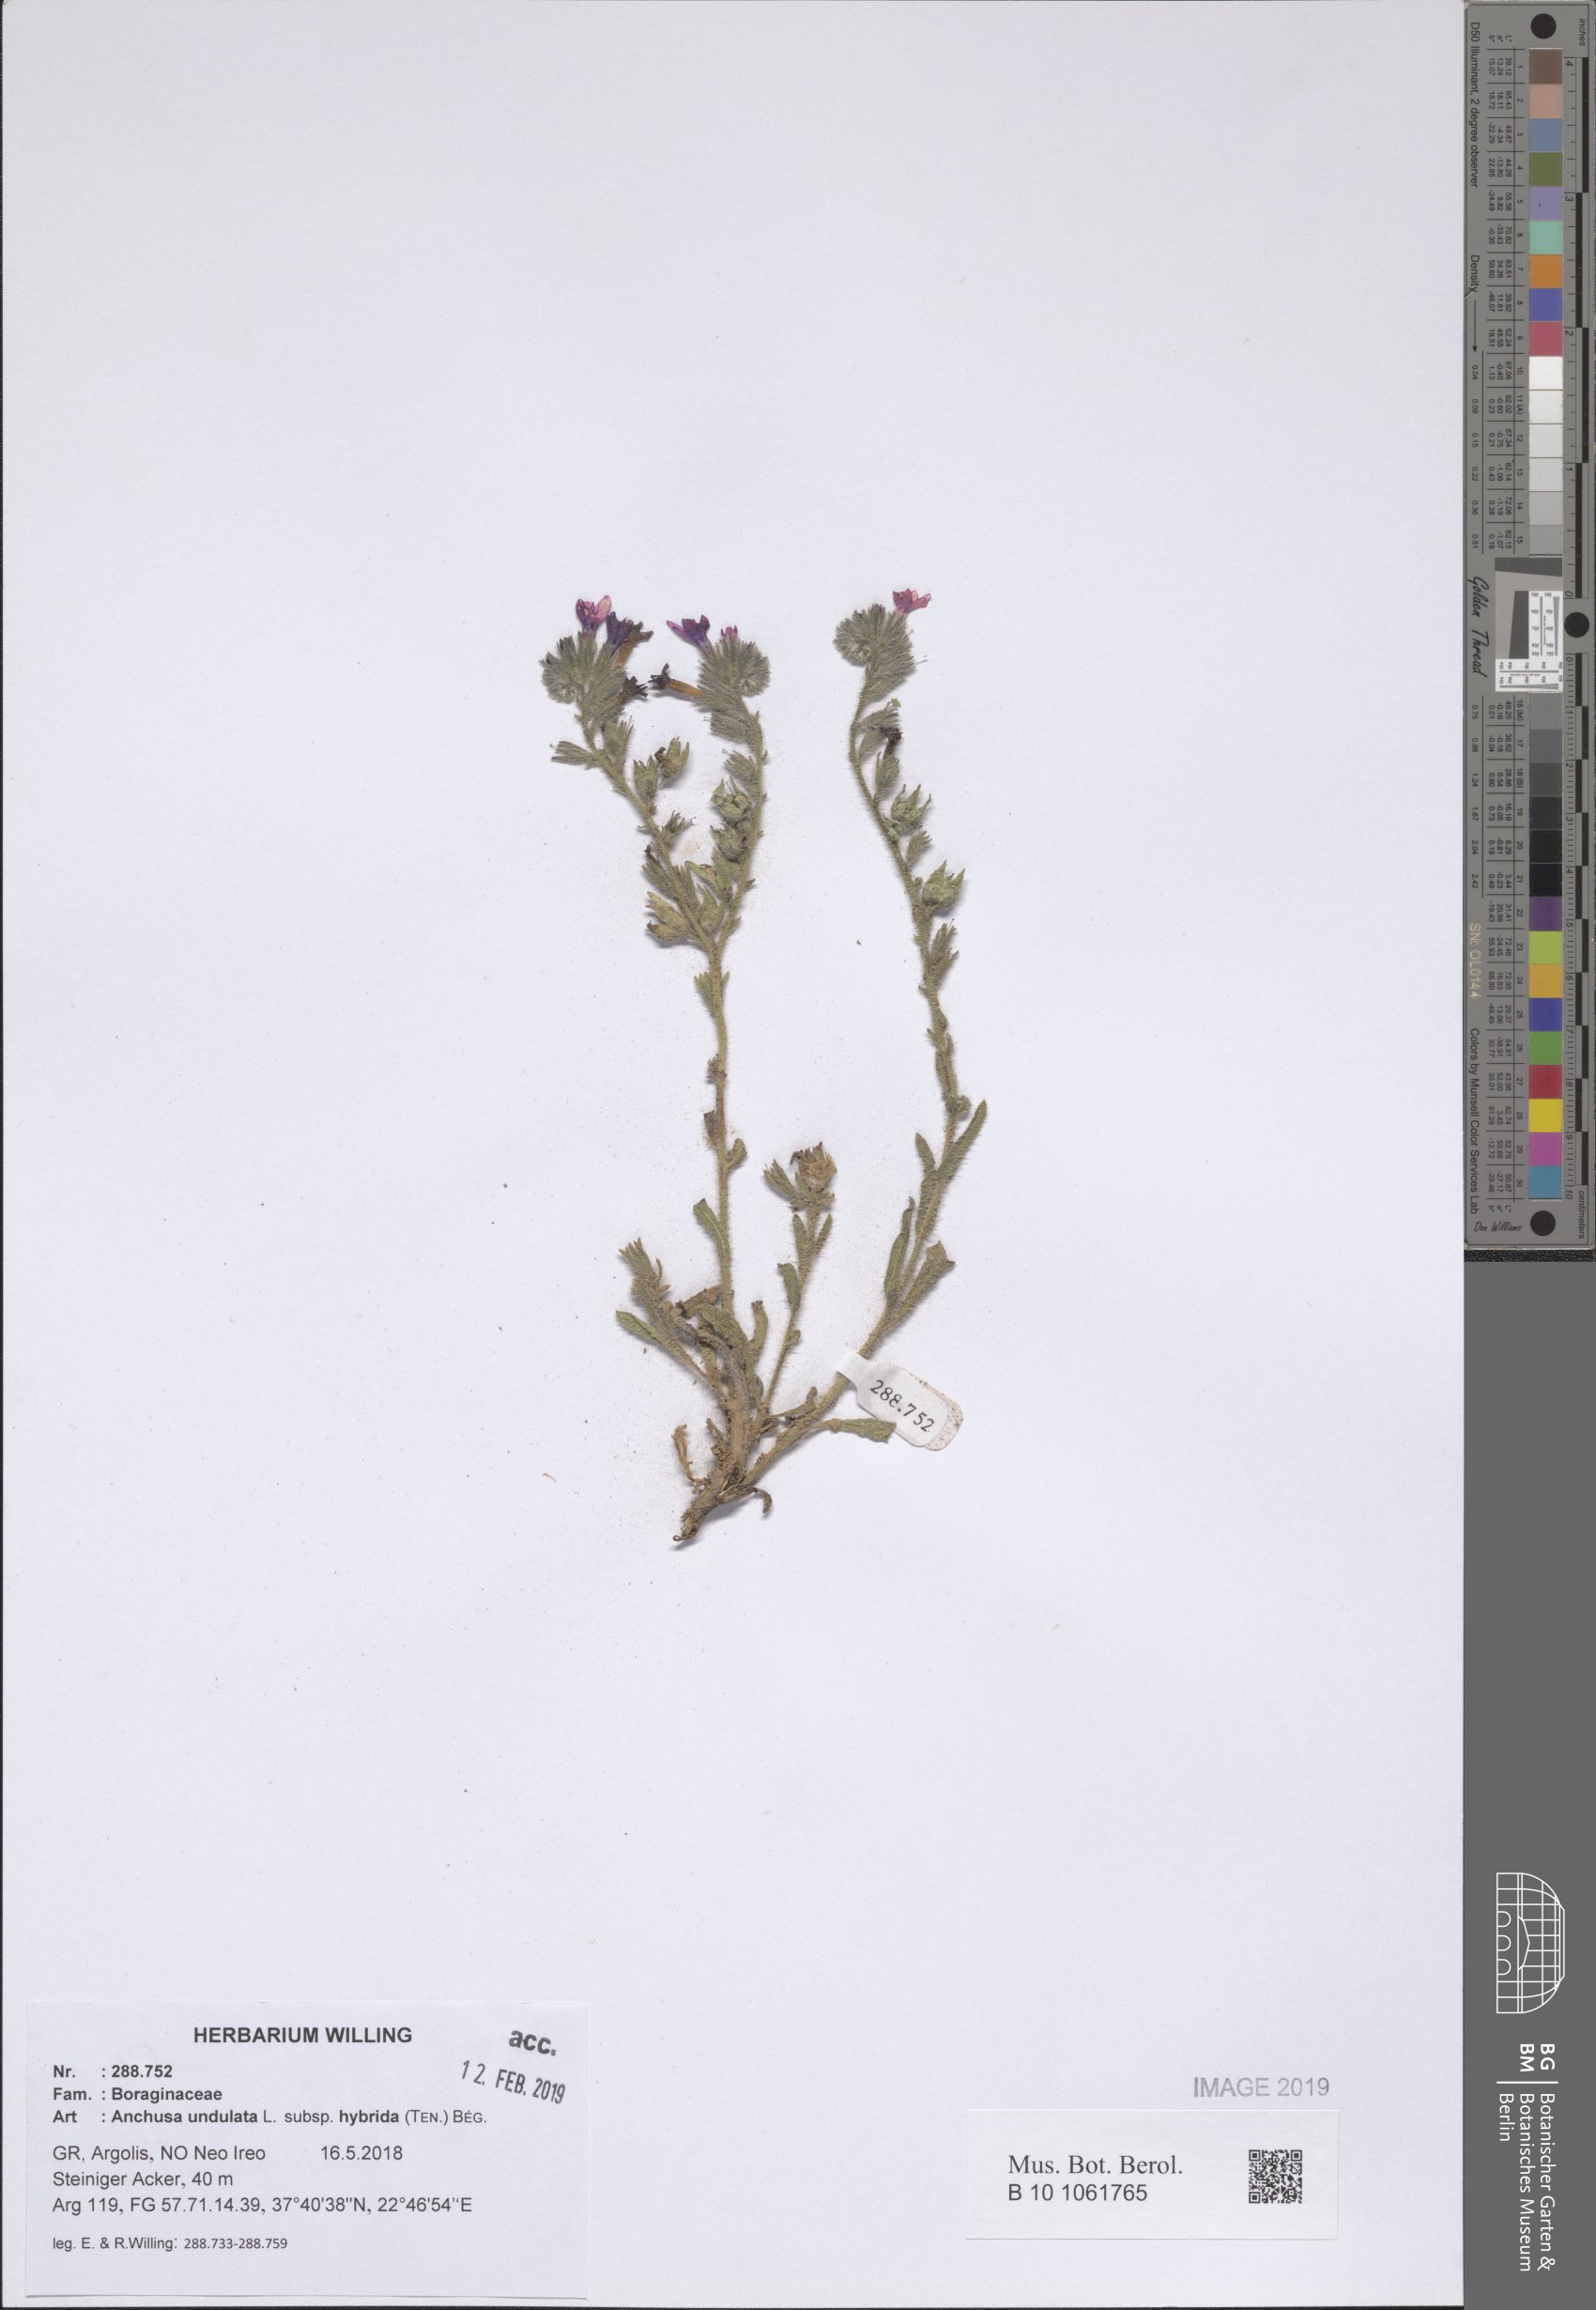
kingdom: Plantae
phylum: Tracheophyta
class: Magnoliopsida
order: Boraginales
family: Boraginaceae
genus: Anchusa
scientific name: Anchusa undulata
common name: Undulate alkanet
